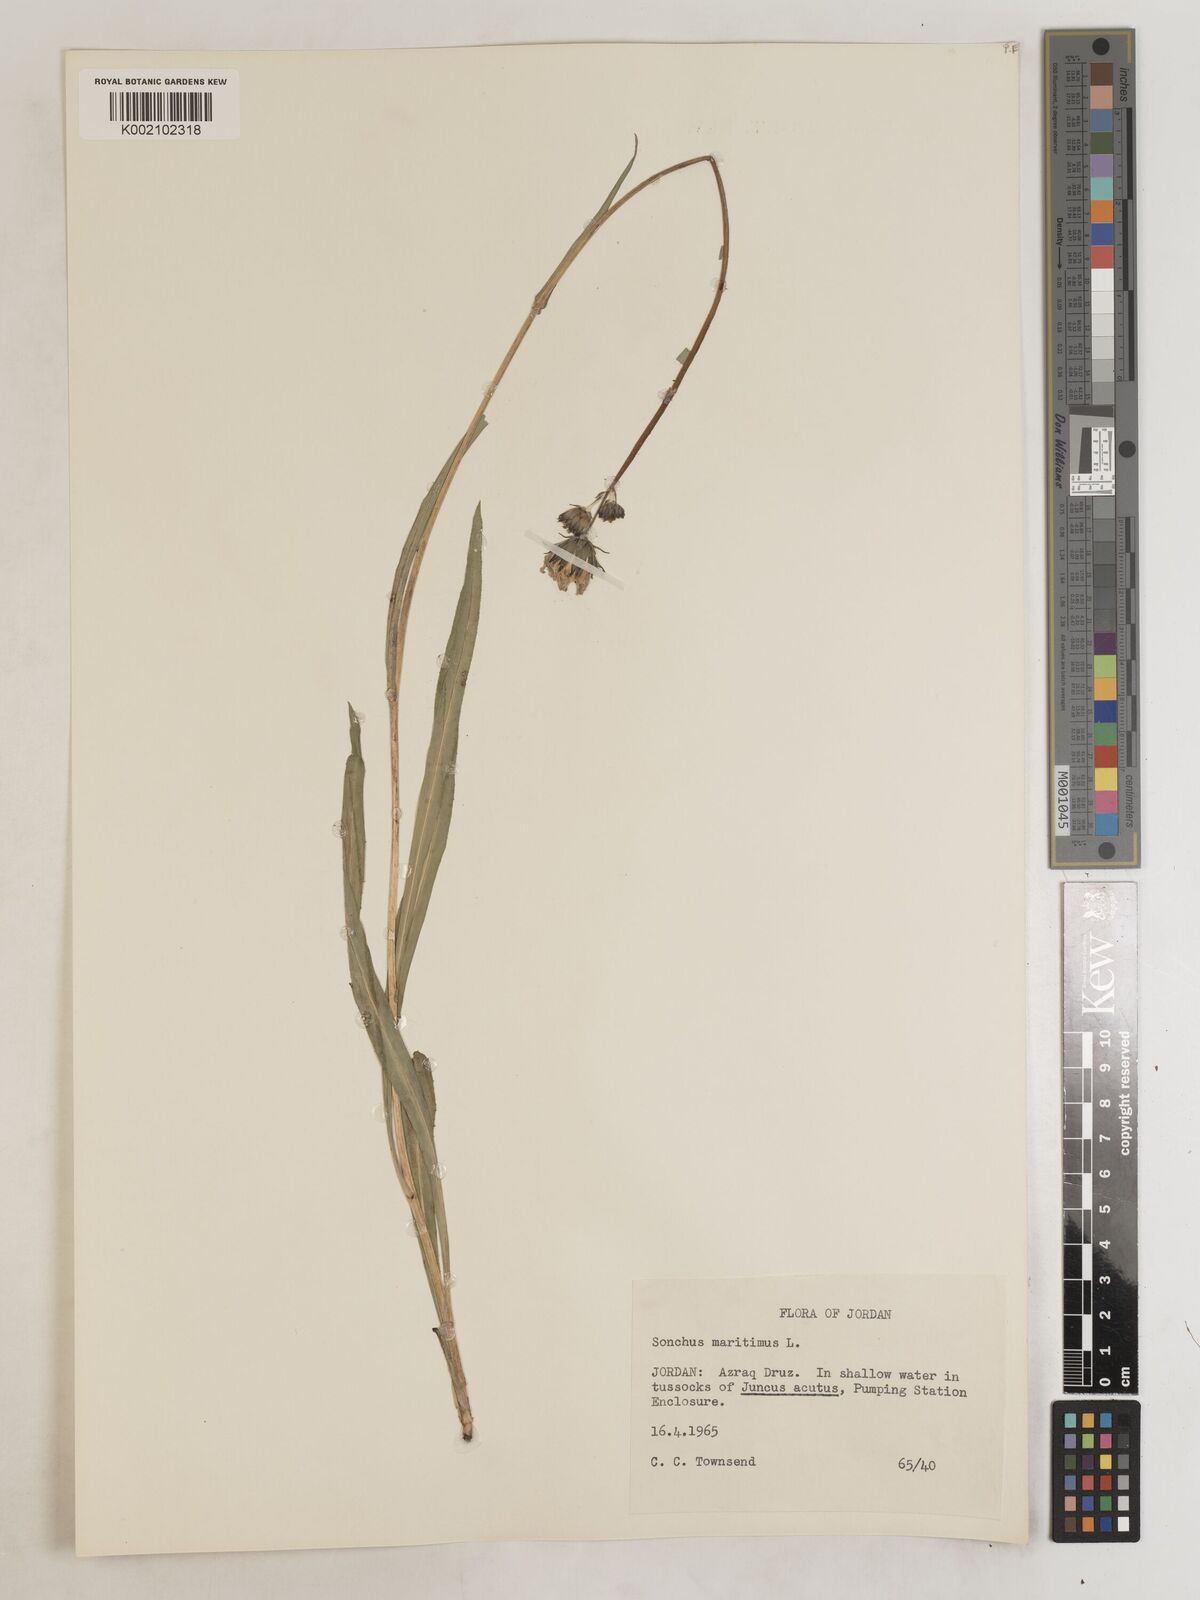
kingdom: Plantae
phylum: Tracheophyta
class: Magnoliopsida
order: Asterales
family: Asteraceae
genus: Sonchus
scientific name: Sonchus maritimus
